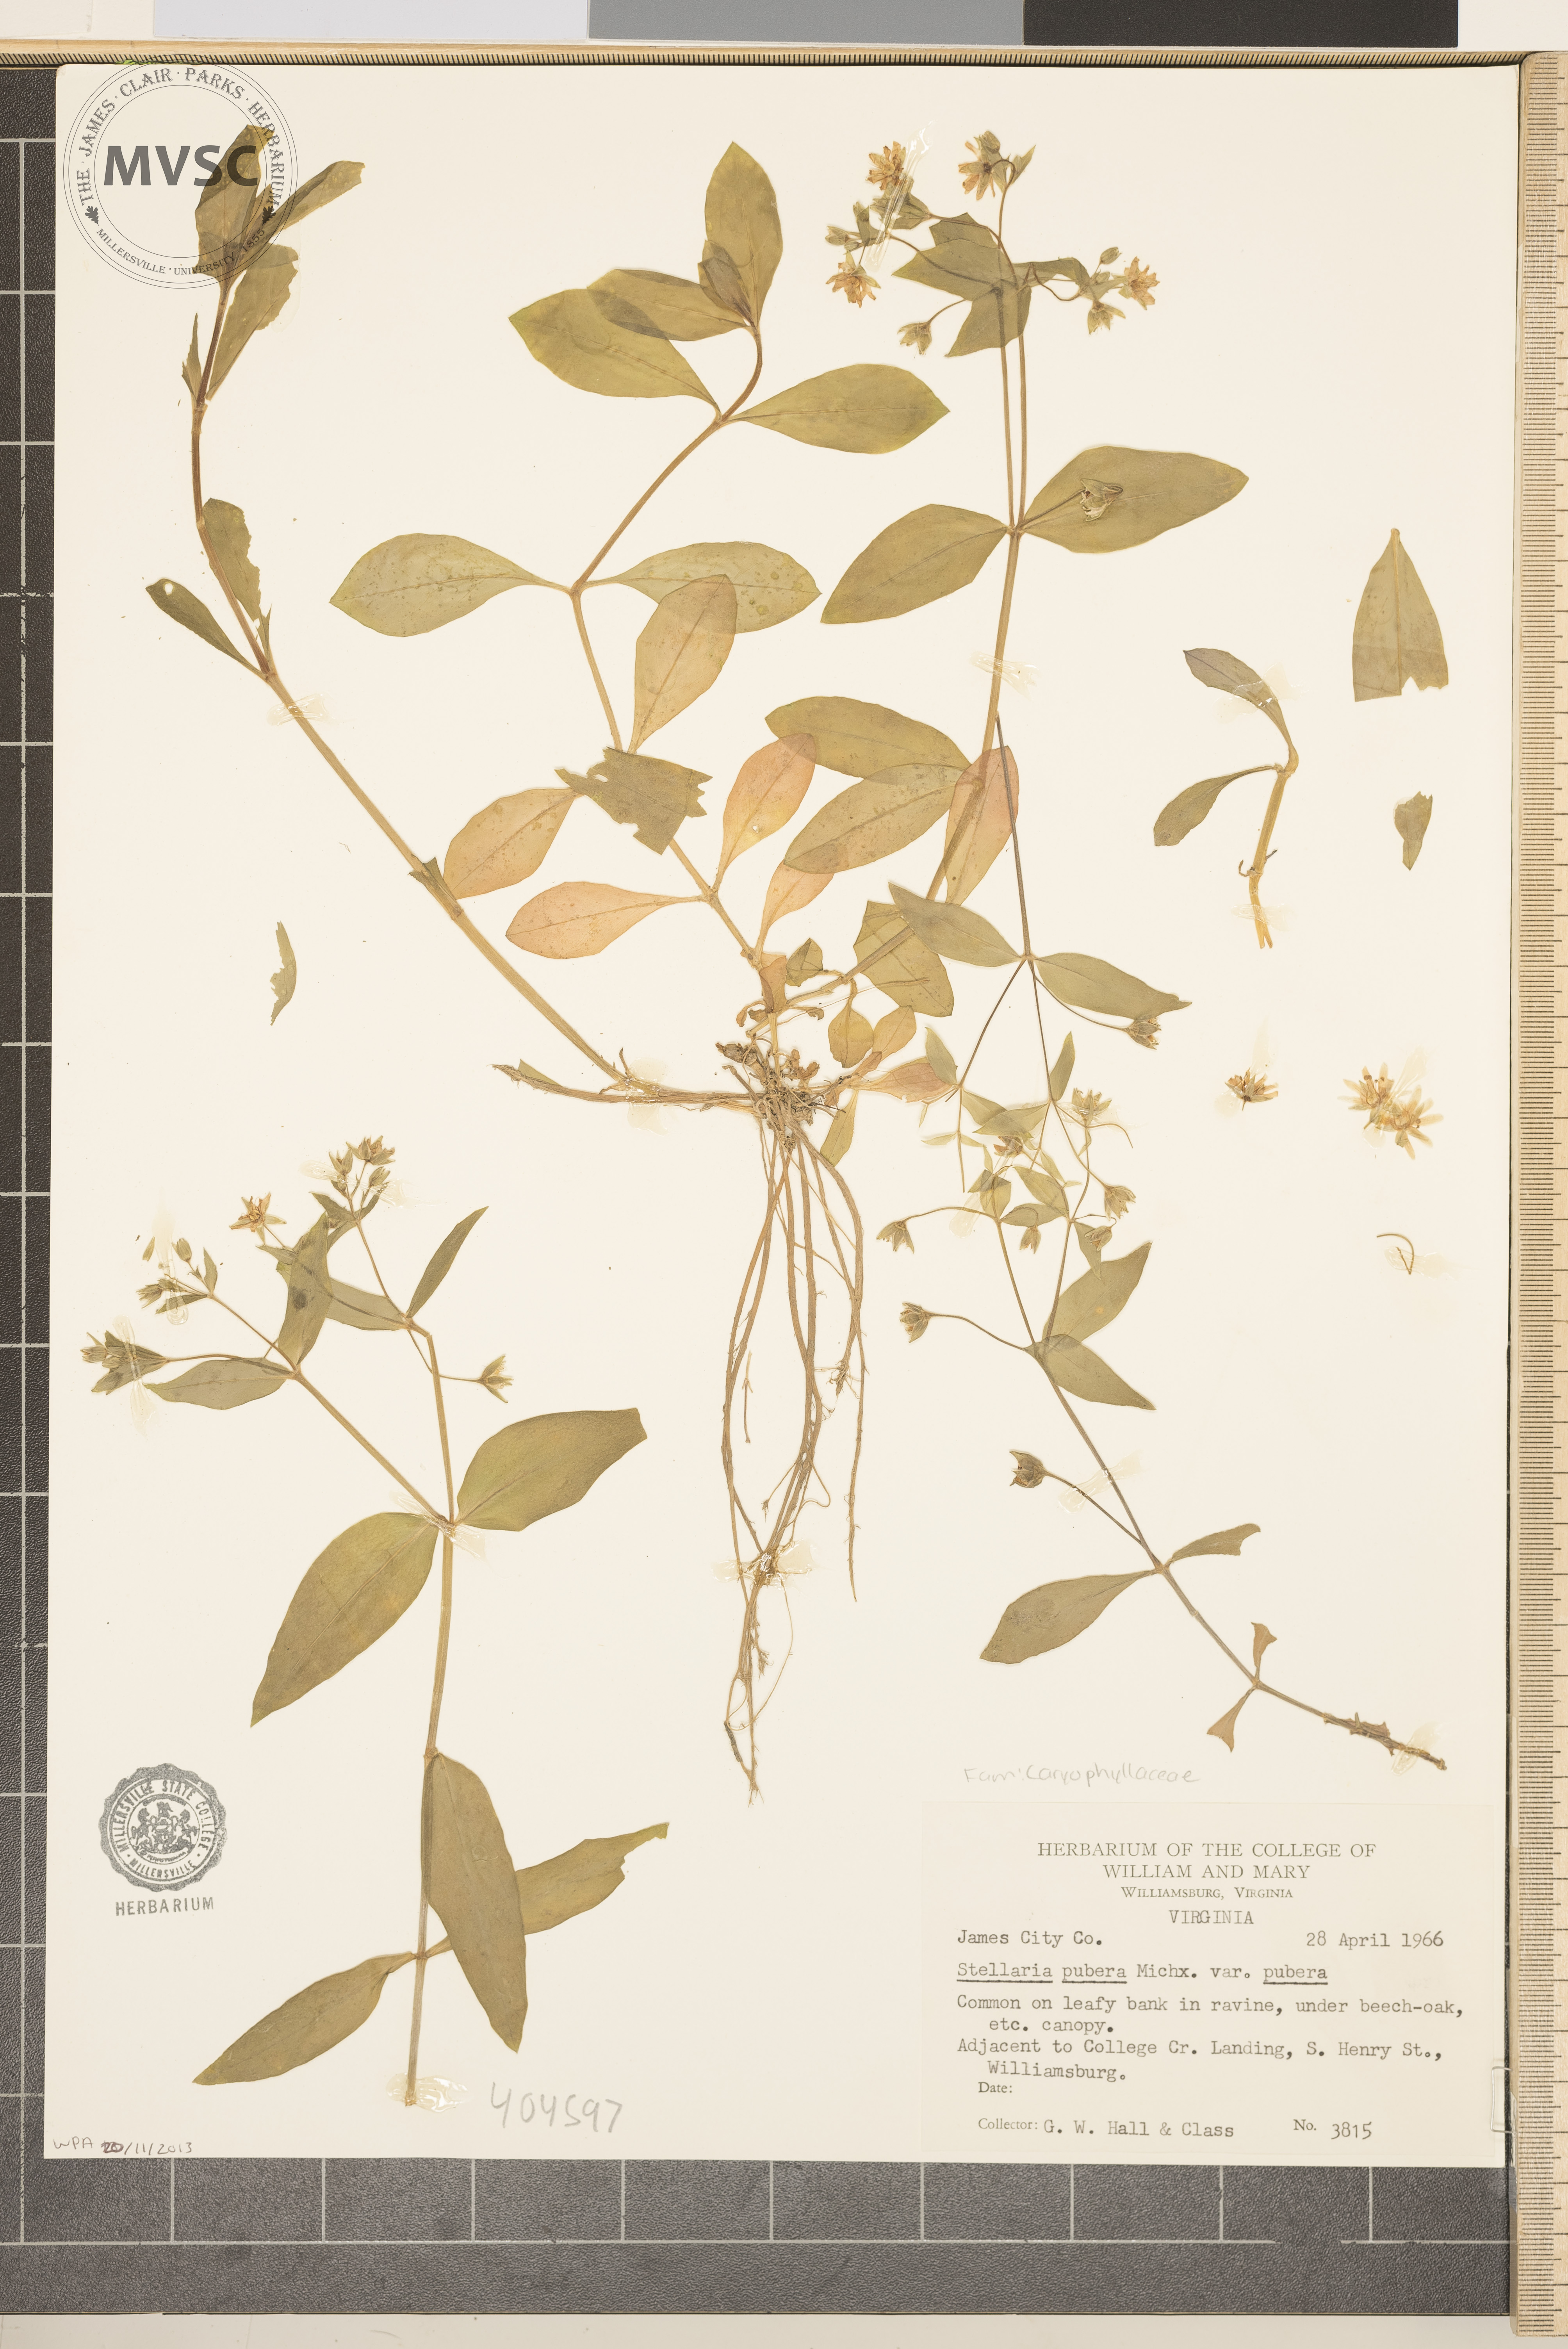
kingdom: Plantae
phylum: Tracheophyta
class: Magnoliopsida
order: Caryophyllales
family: Caryophyllaceae
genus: Stellaria
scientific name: Stellaria pubera
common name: Star chickweed
